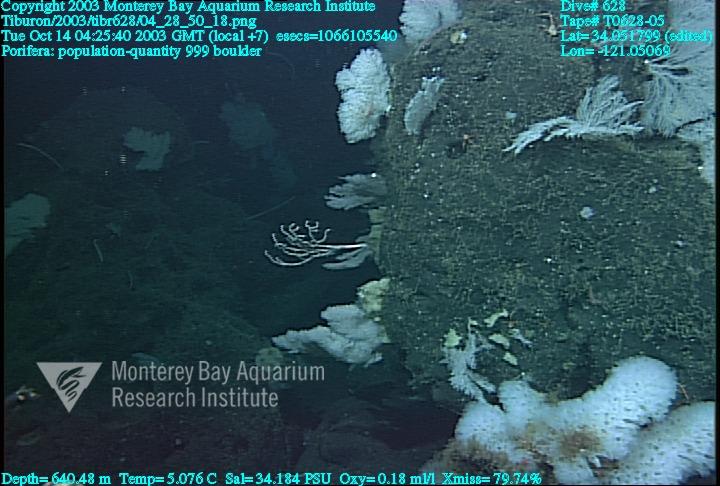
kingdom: Animalia
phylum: Porifera
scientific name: Porifera
